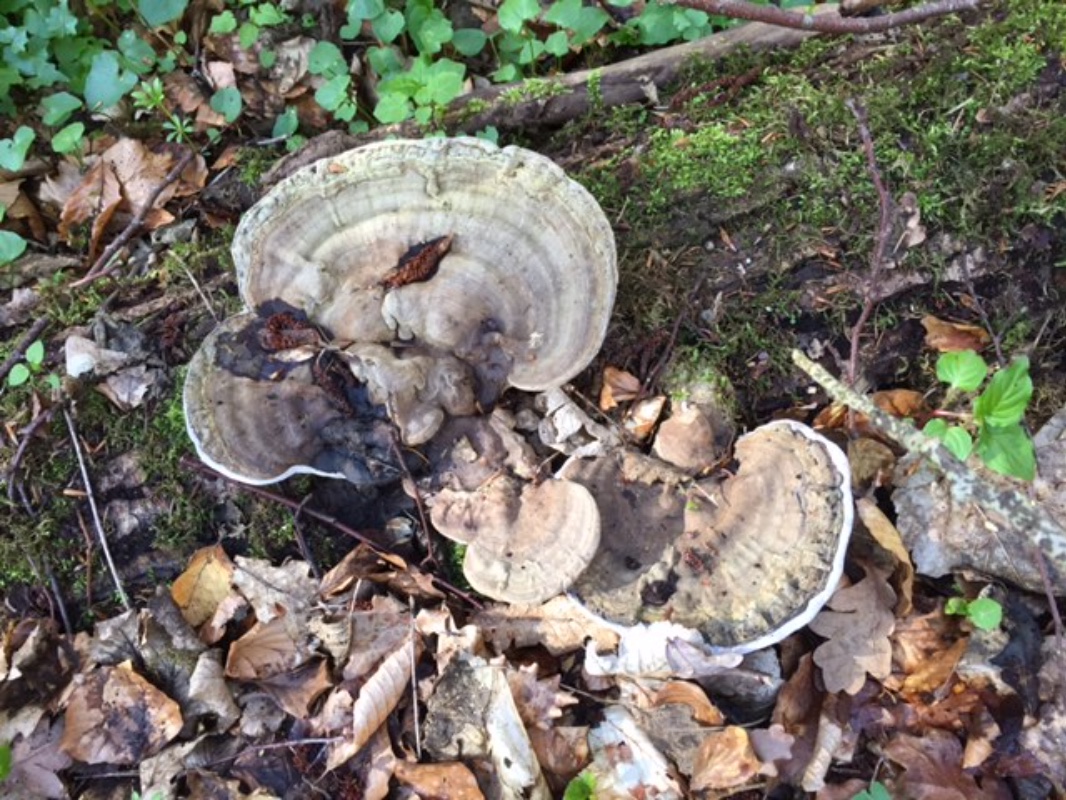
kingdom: Fungi
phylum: Basidiomycota
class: Agaricomycetes
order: Polyporales
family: Polyporaceae
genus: Ganoderma
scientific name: Ganoderma applanatum
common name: flad lakporesvamp
